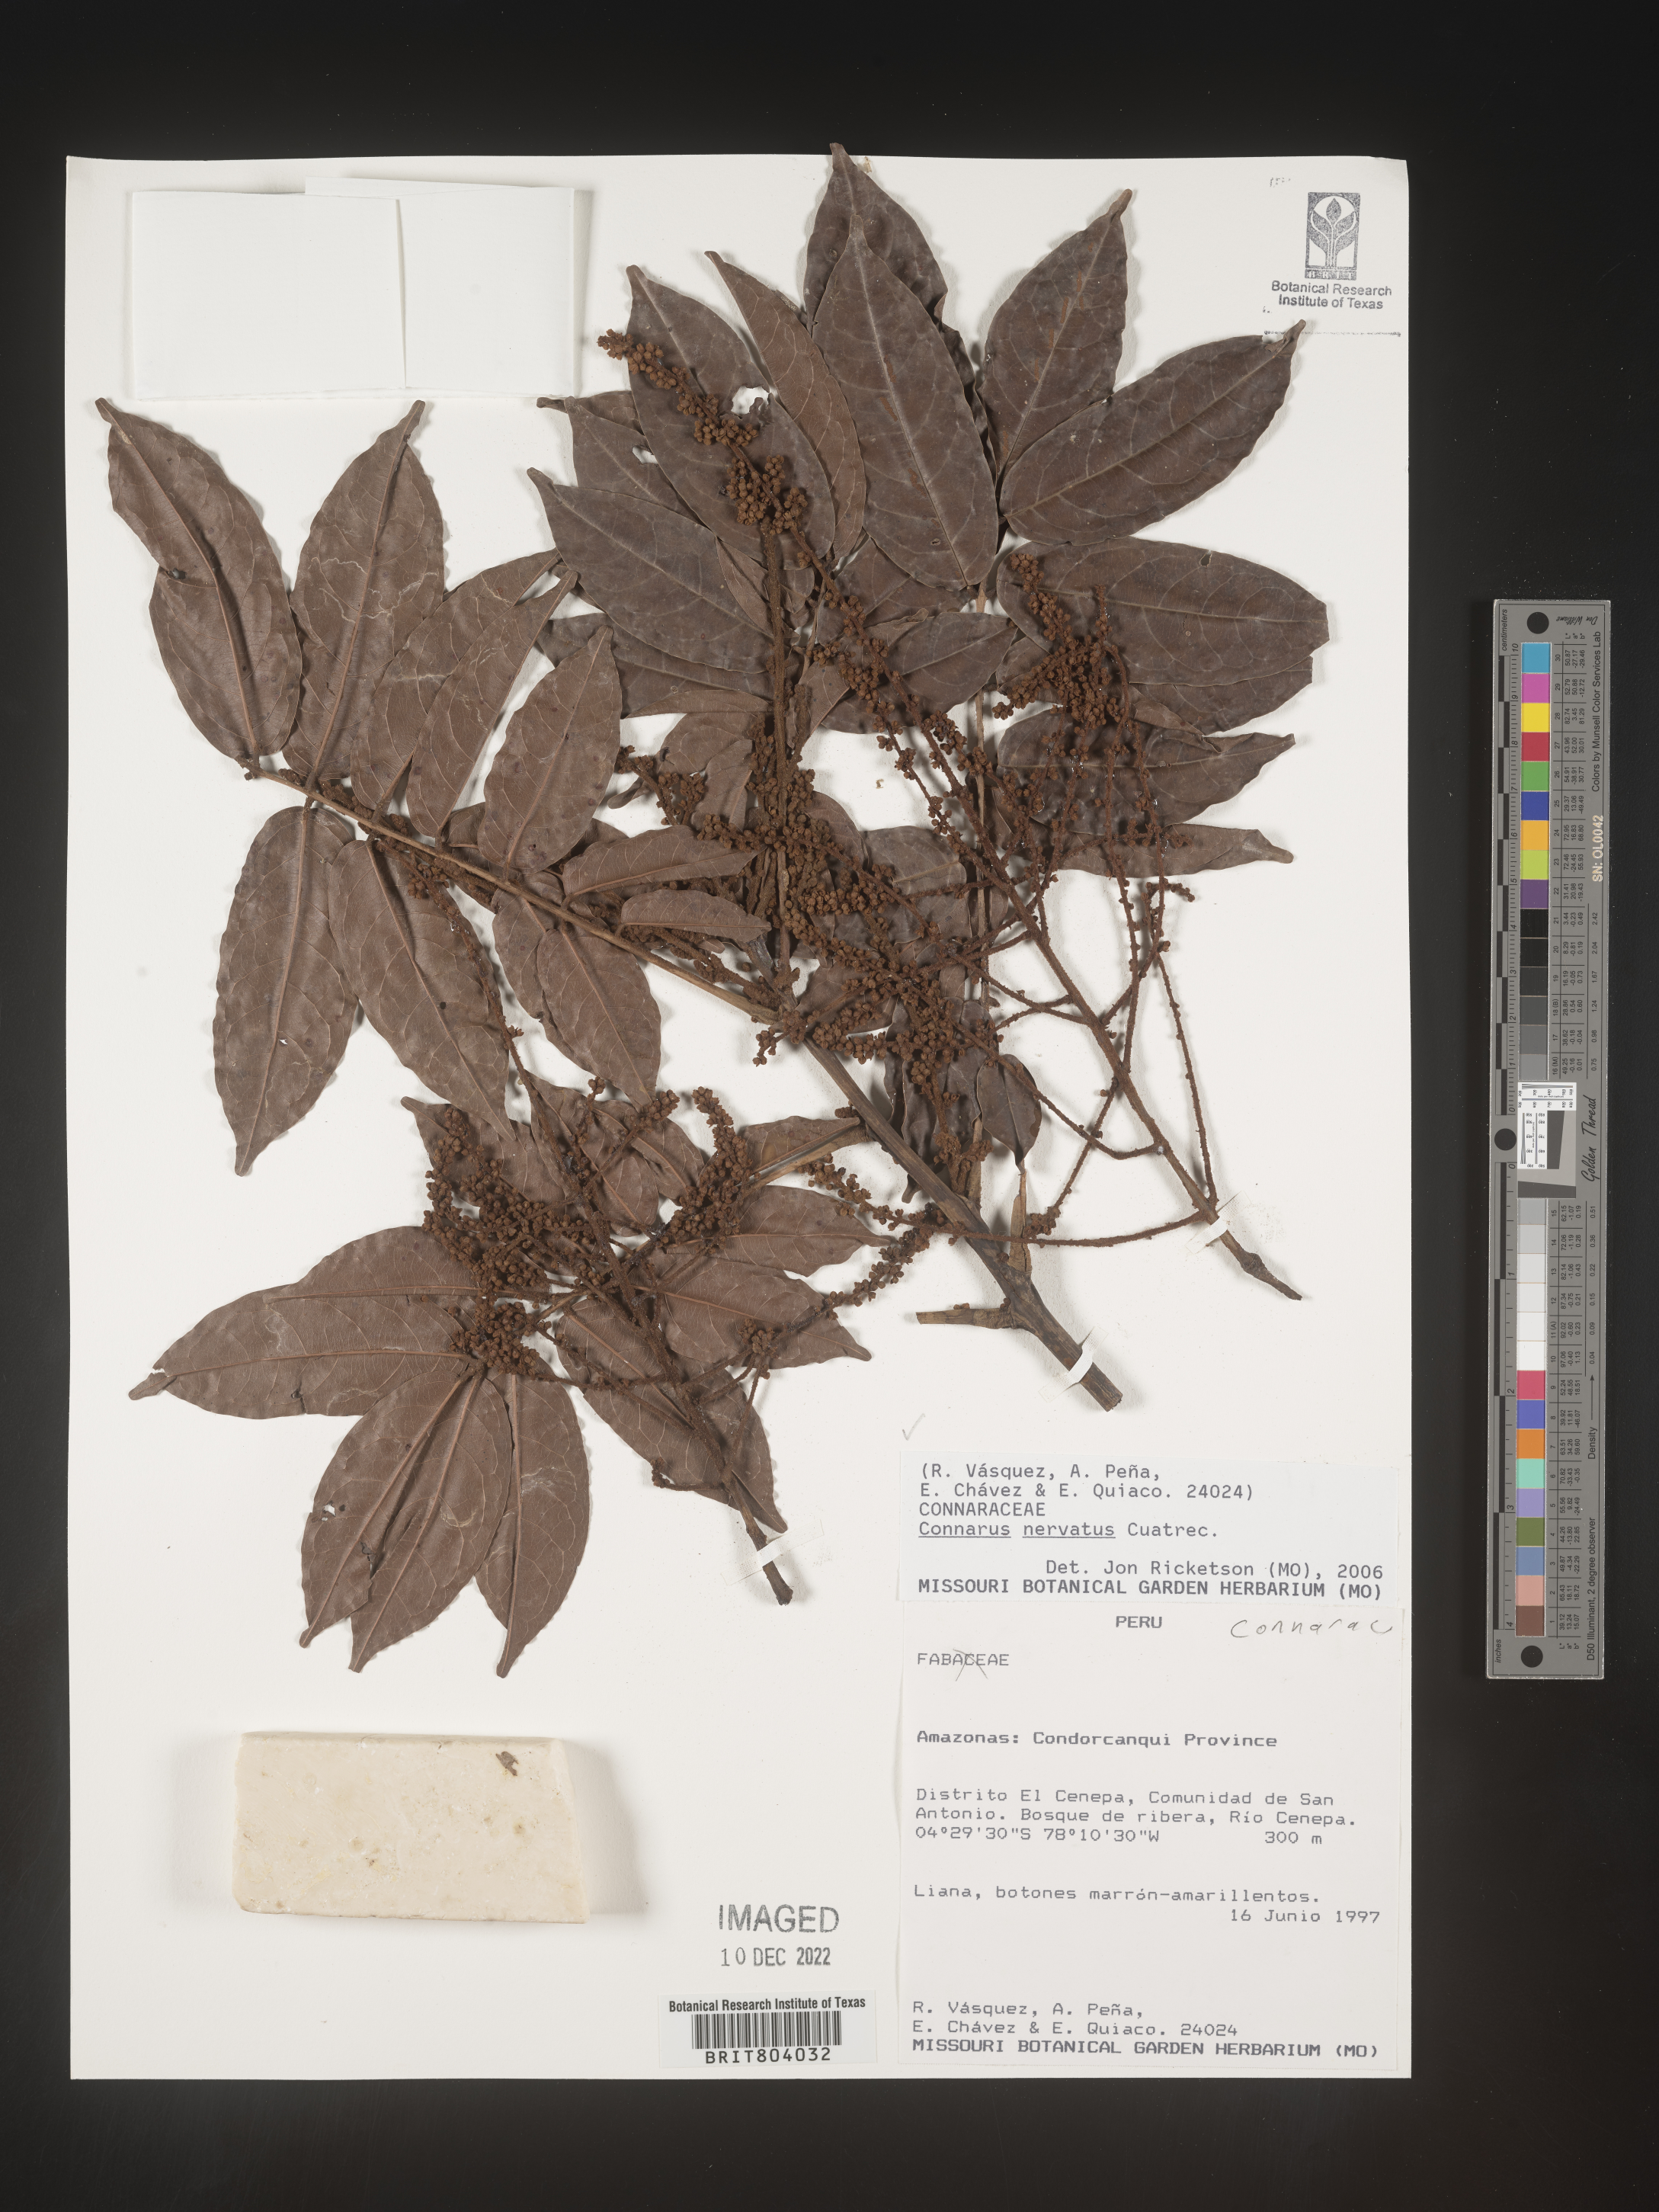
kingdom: Plantae
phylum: Tracheophyta
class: Magnoliopsida
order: Oxalidales
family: Connaraceae
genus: Connarus
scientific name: Connarus
